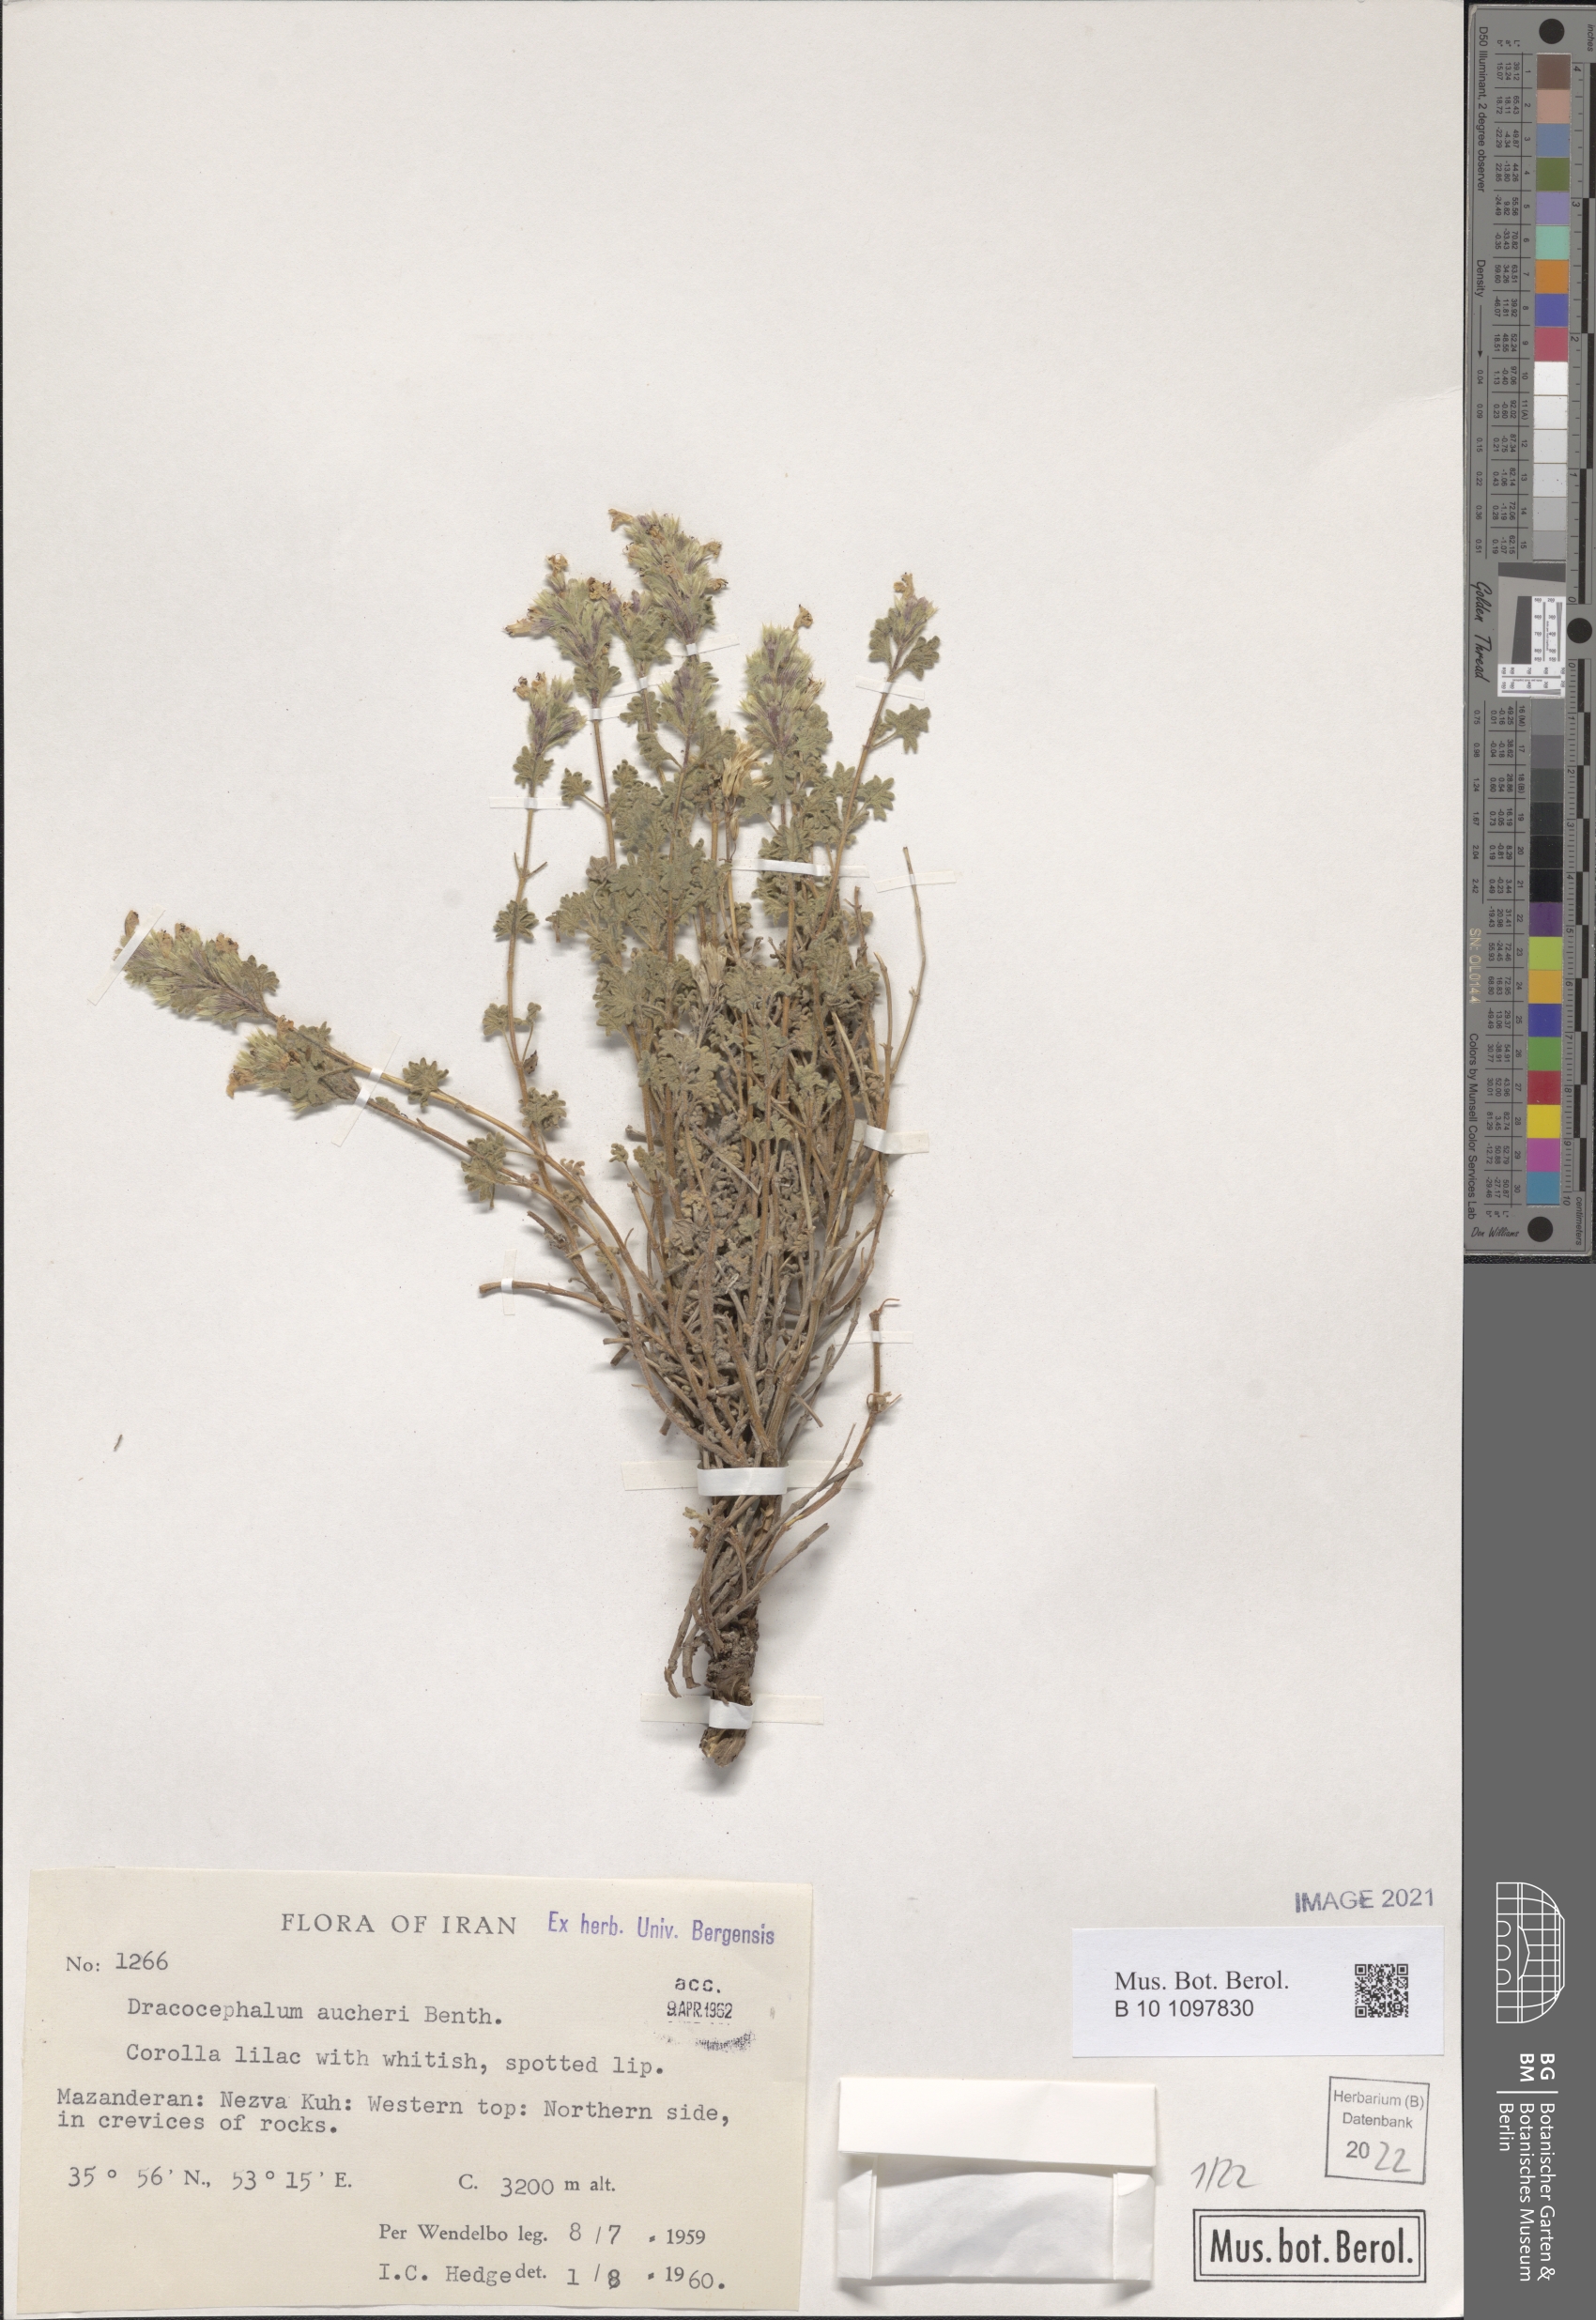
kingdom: Plantae
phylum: Tracheophyta
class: Magnoliopsida
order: Lamiales
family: Lamiaceae
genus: Dracocephalum
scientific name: Dracocephalum aucheri
